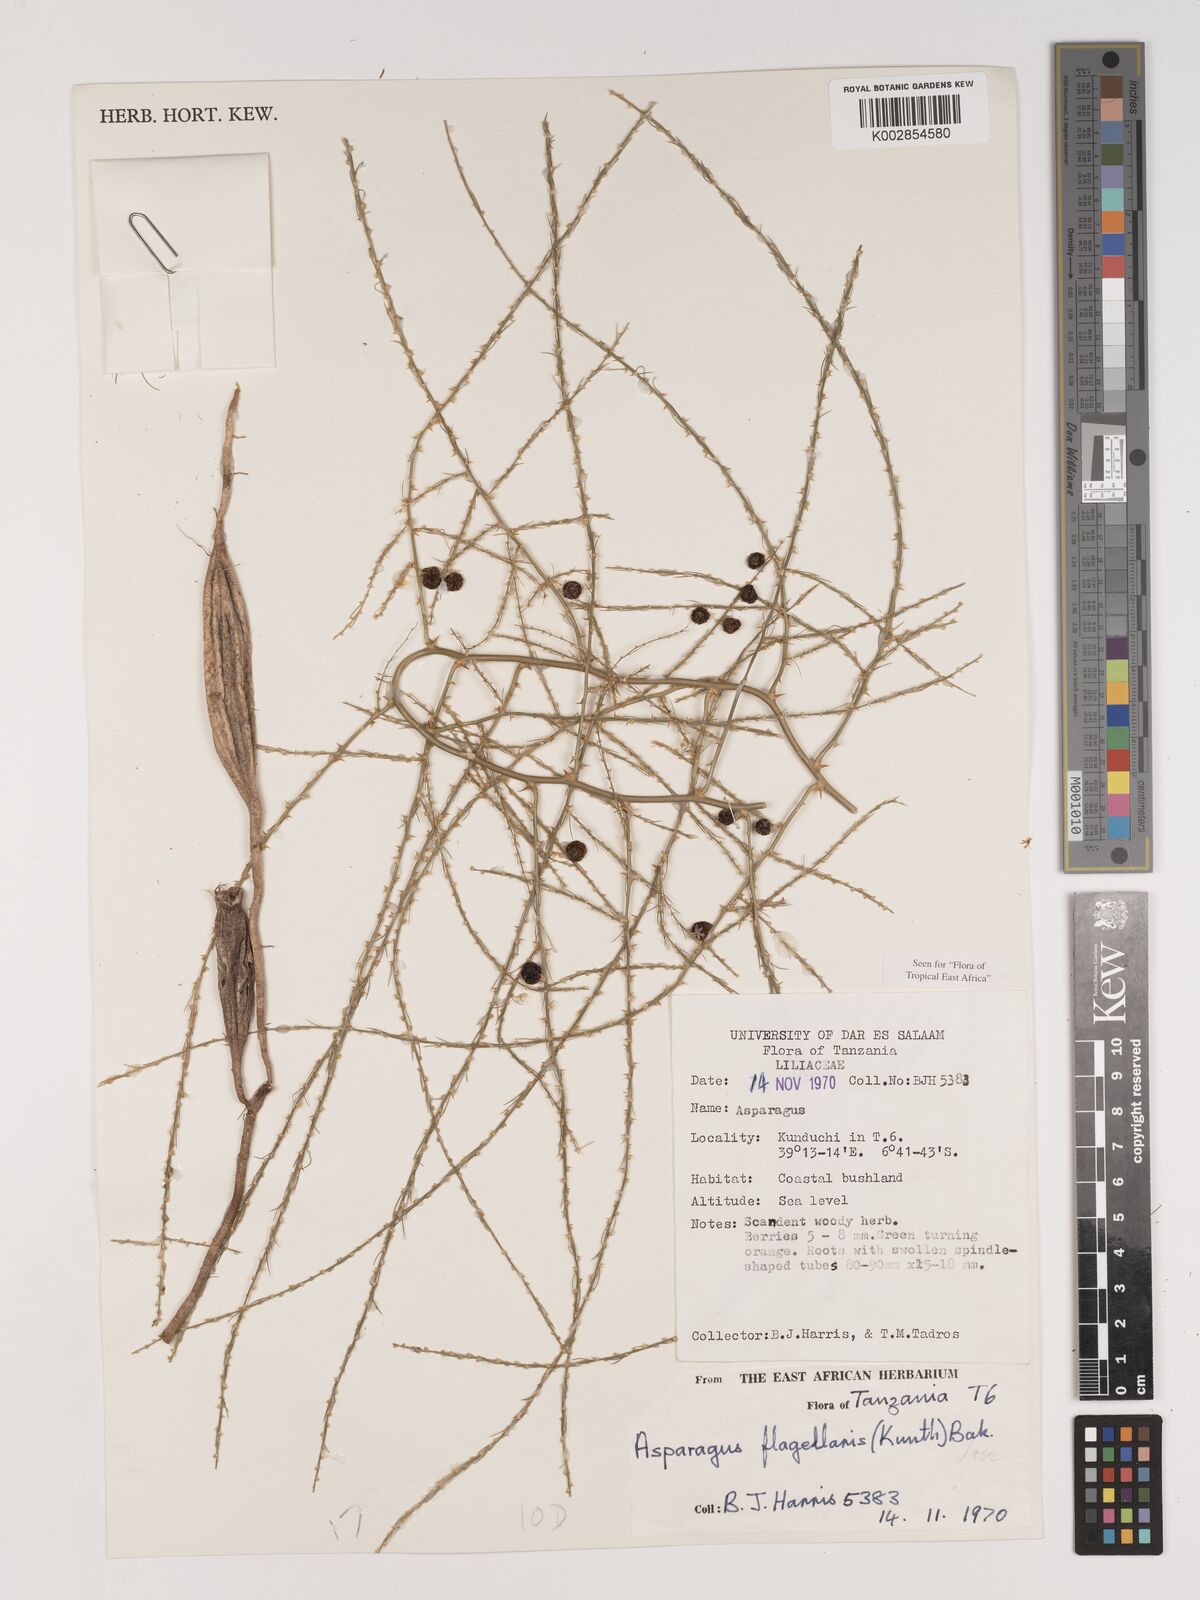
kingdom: Plantae
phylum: Tracheophyta
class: Liliopsida
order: Asparagales
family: Asparagaceae
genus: Asparagus
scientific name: Asparagus flagellaris
